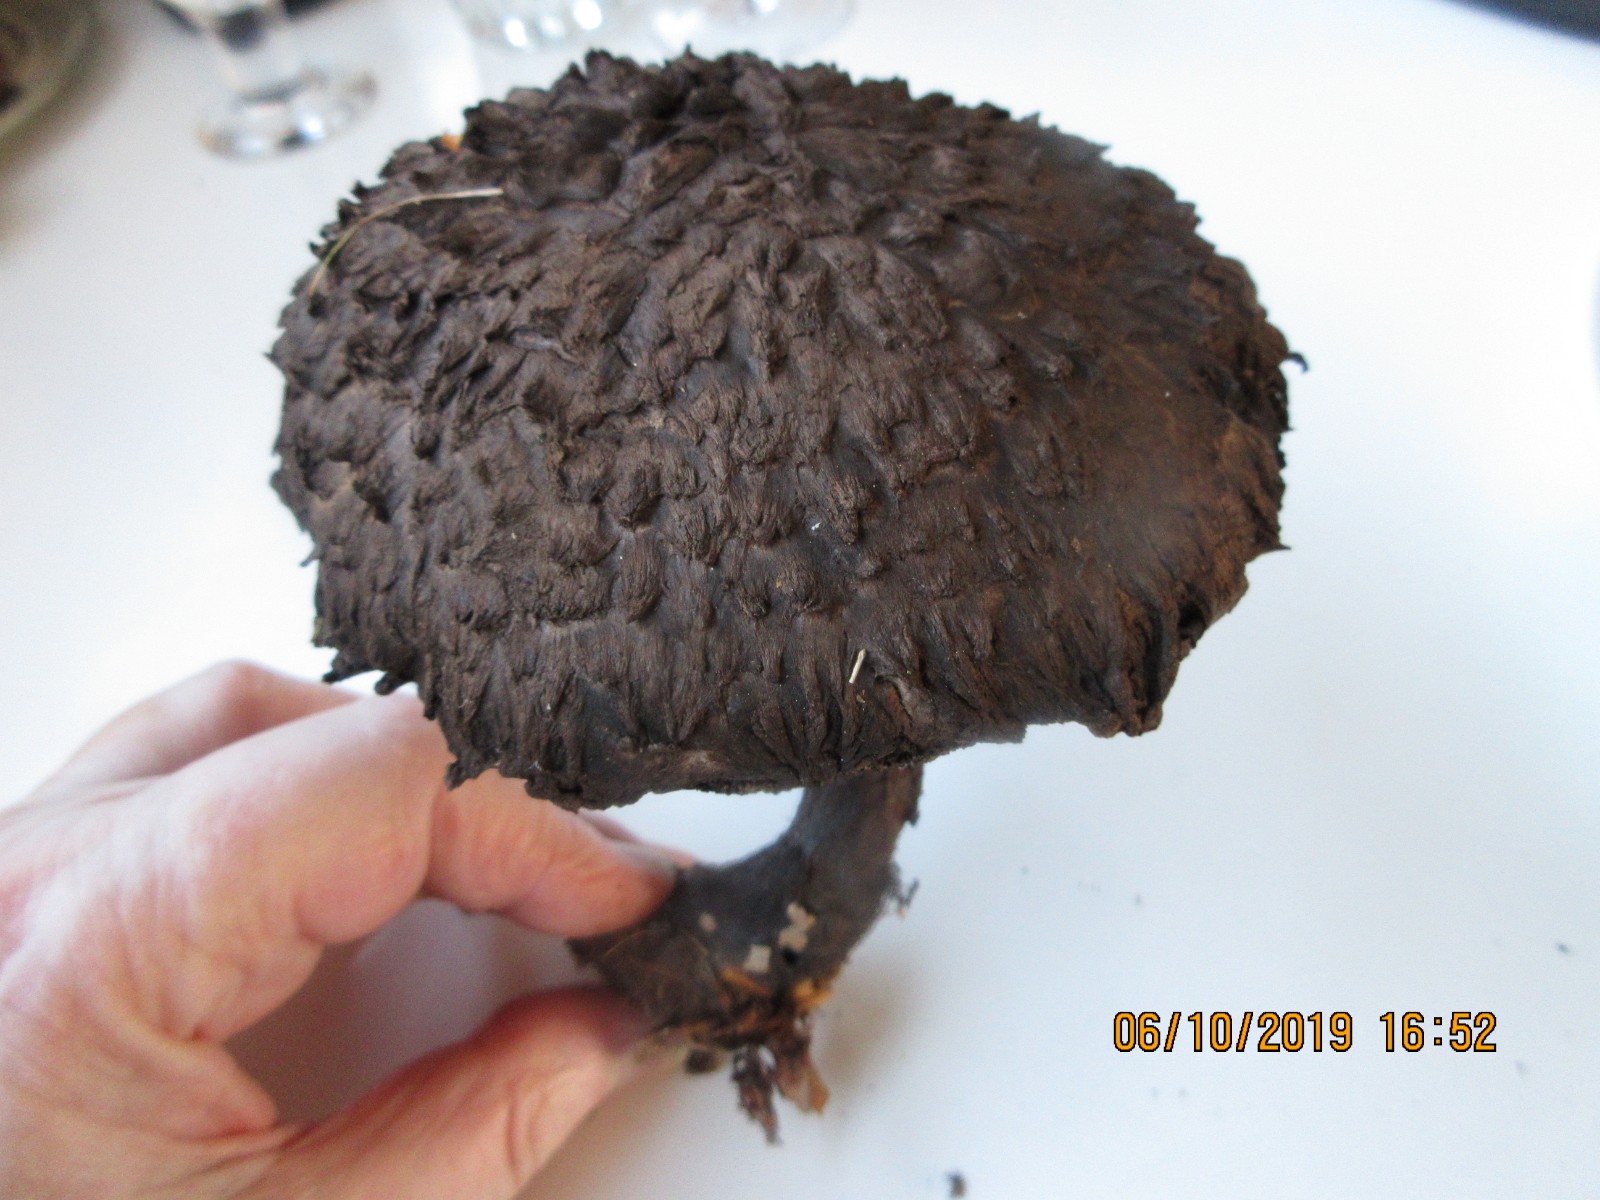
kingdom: Fungi
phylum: Basidiomycota
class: Agaricomycetes
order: Boletales
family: Boletaceae
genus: Strobilomyces
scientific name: Strobilomyces strobilaceus
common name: koglerørhat
